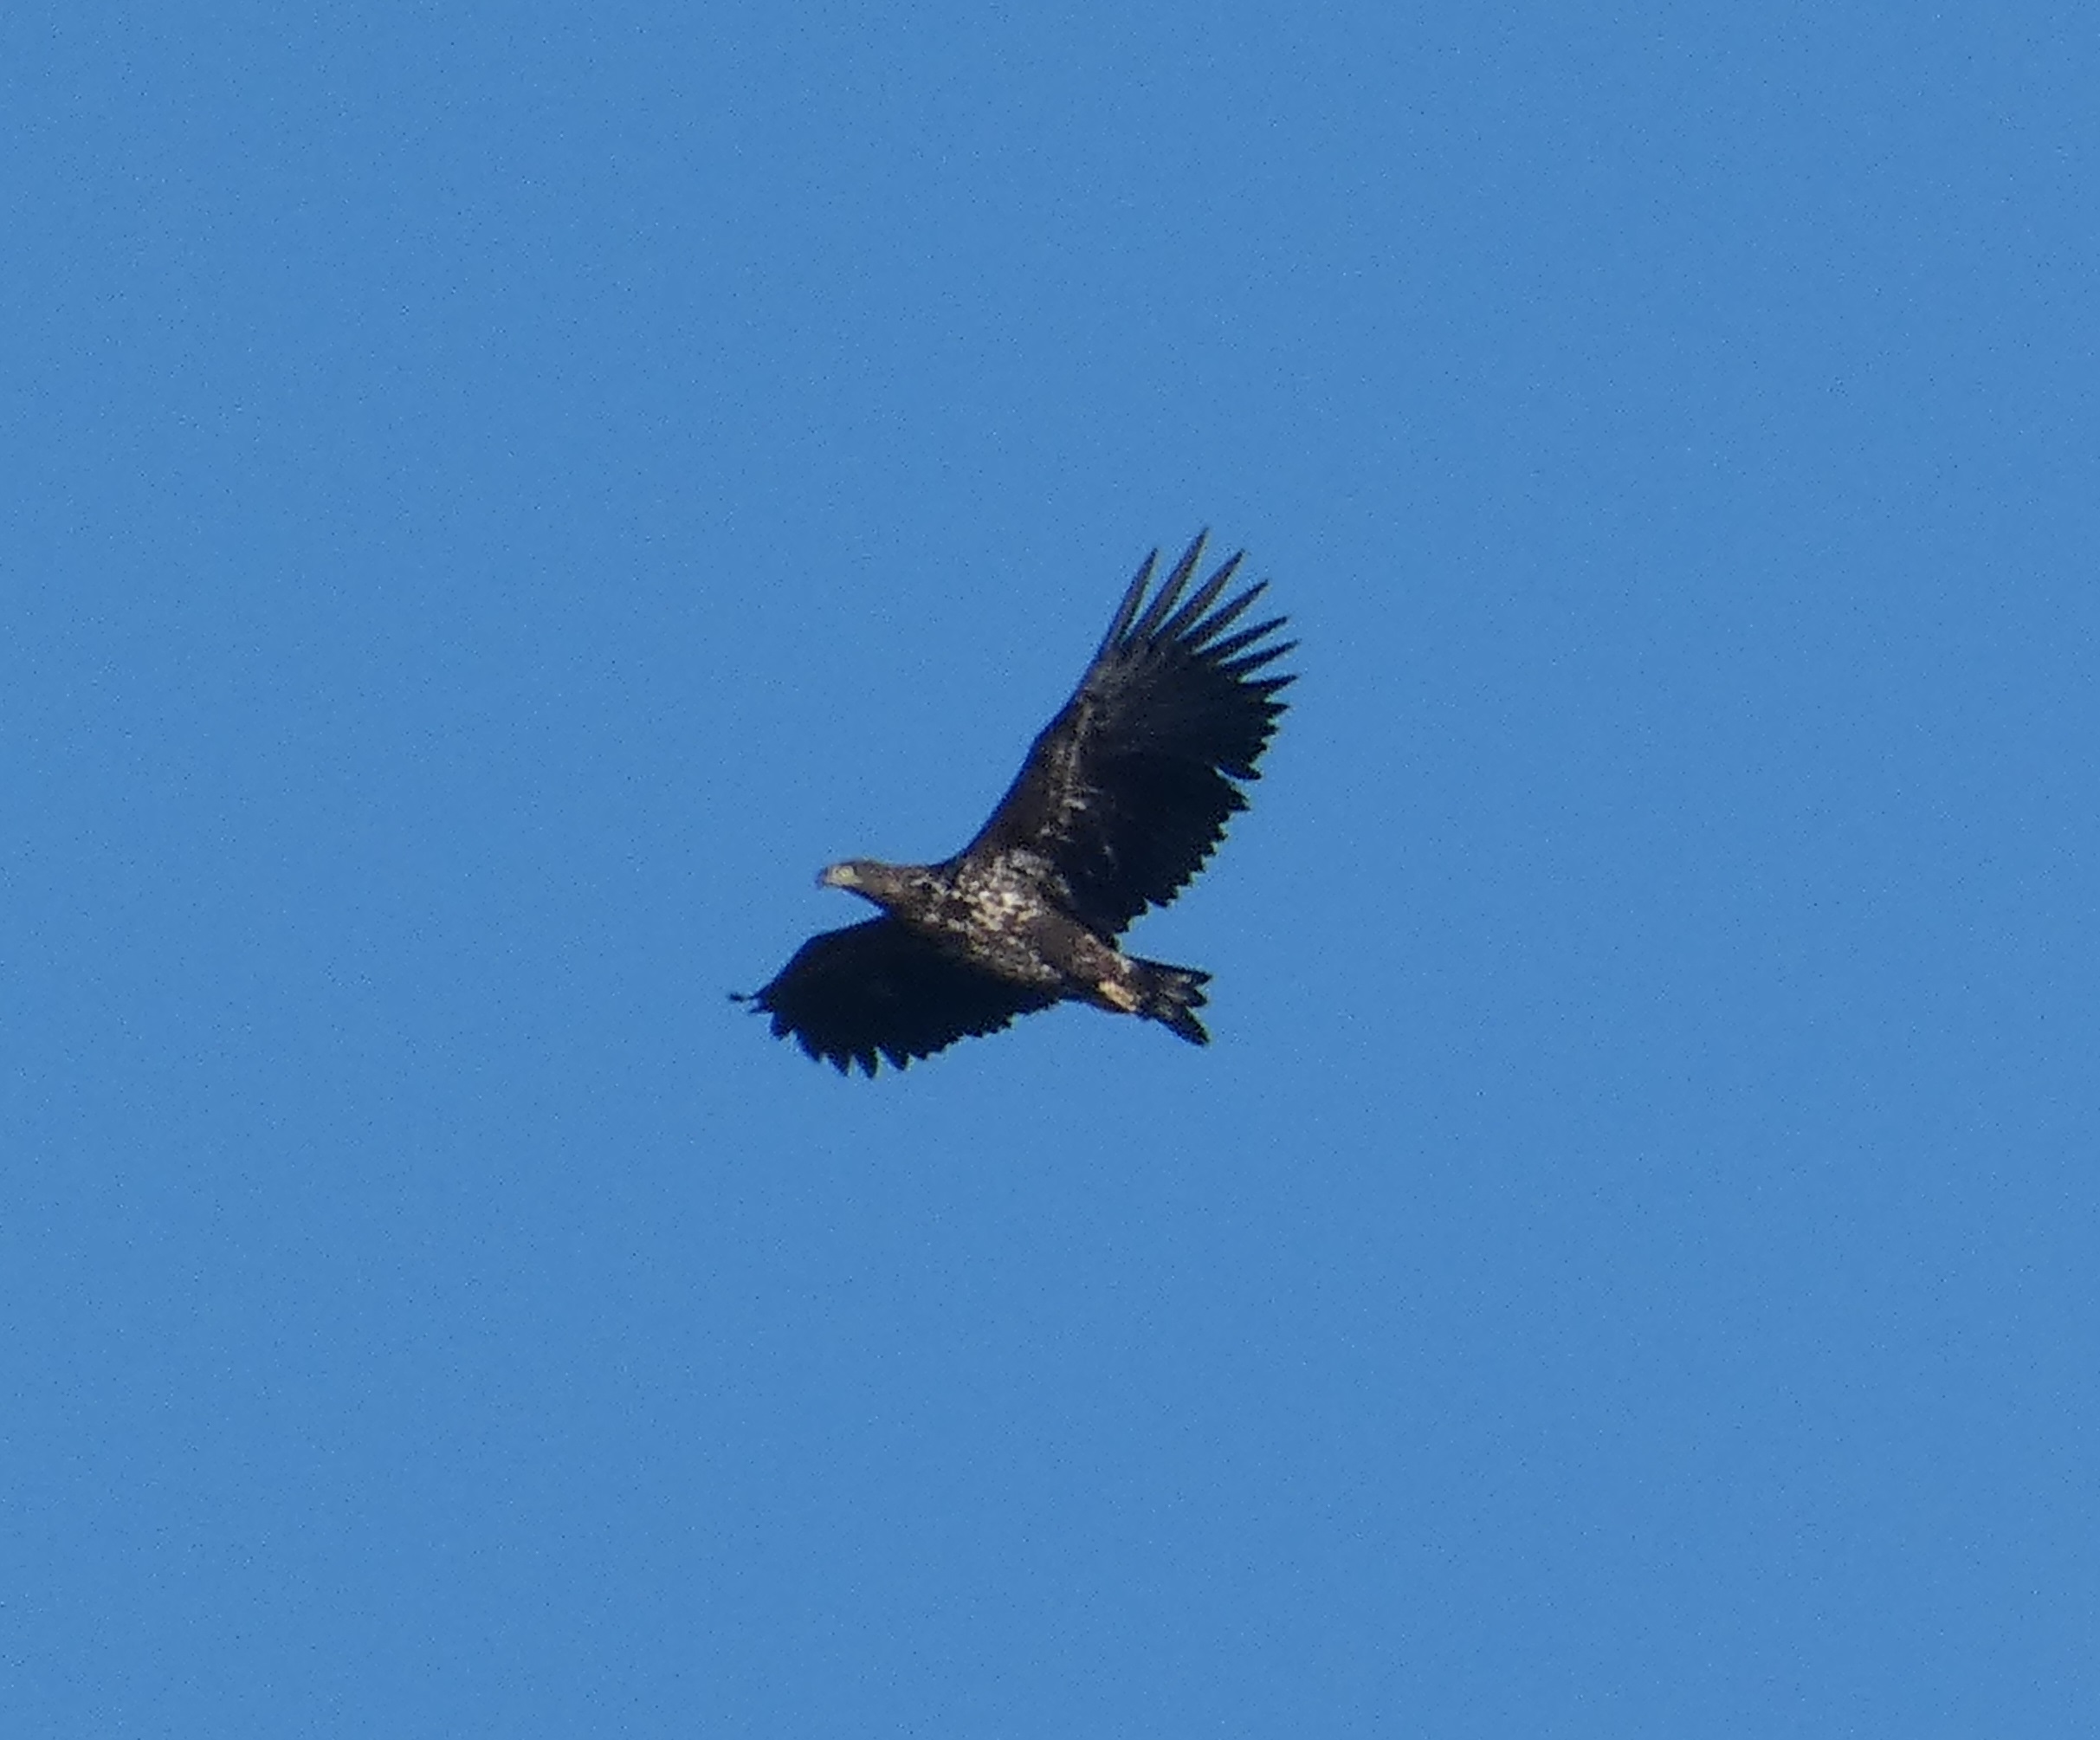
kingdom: Animalia
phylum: Chordata
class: Aves
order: Accipitriformes
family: Accipitridae
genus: Haliaeetus
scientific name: Haliaeetus albicilla
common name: Havørn
